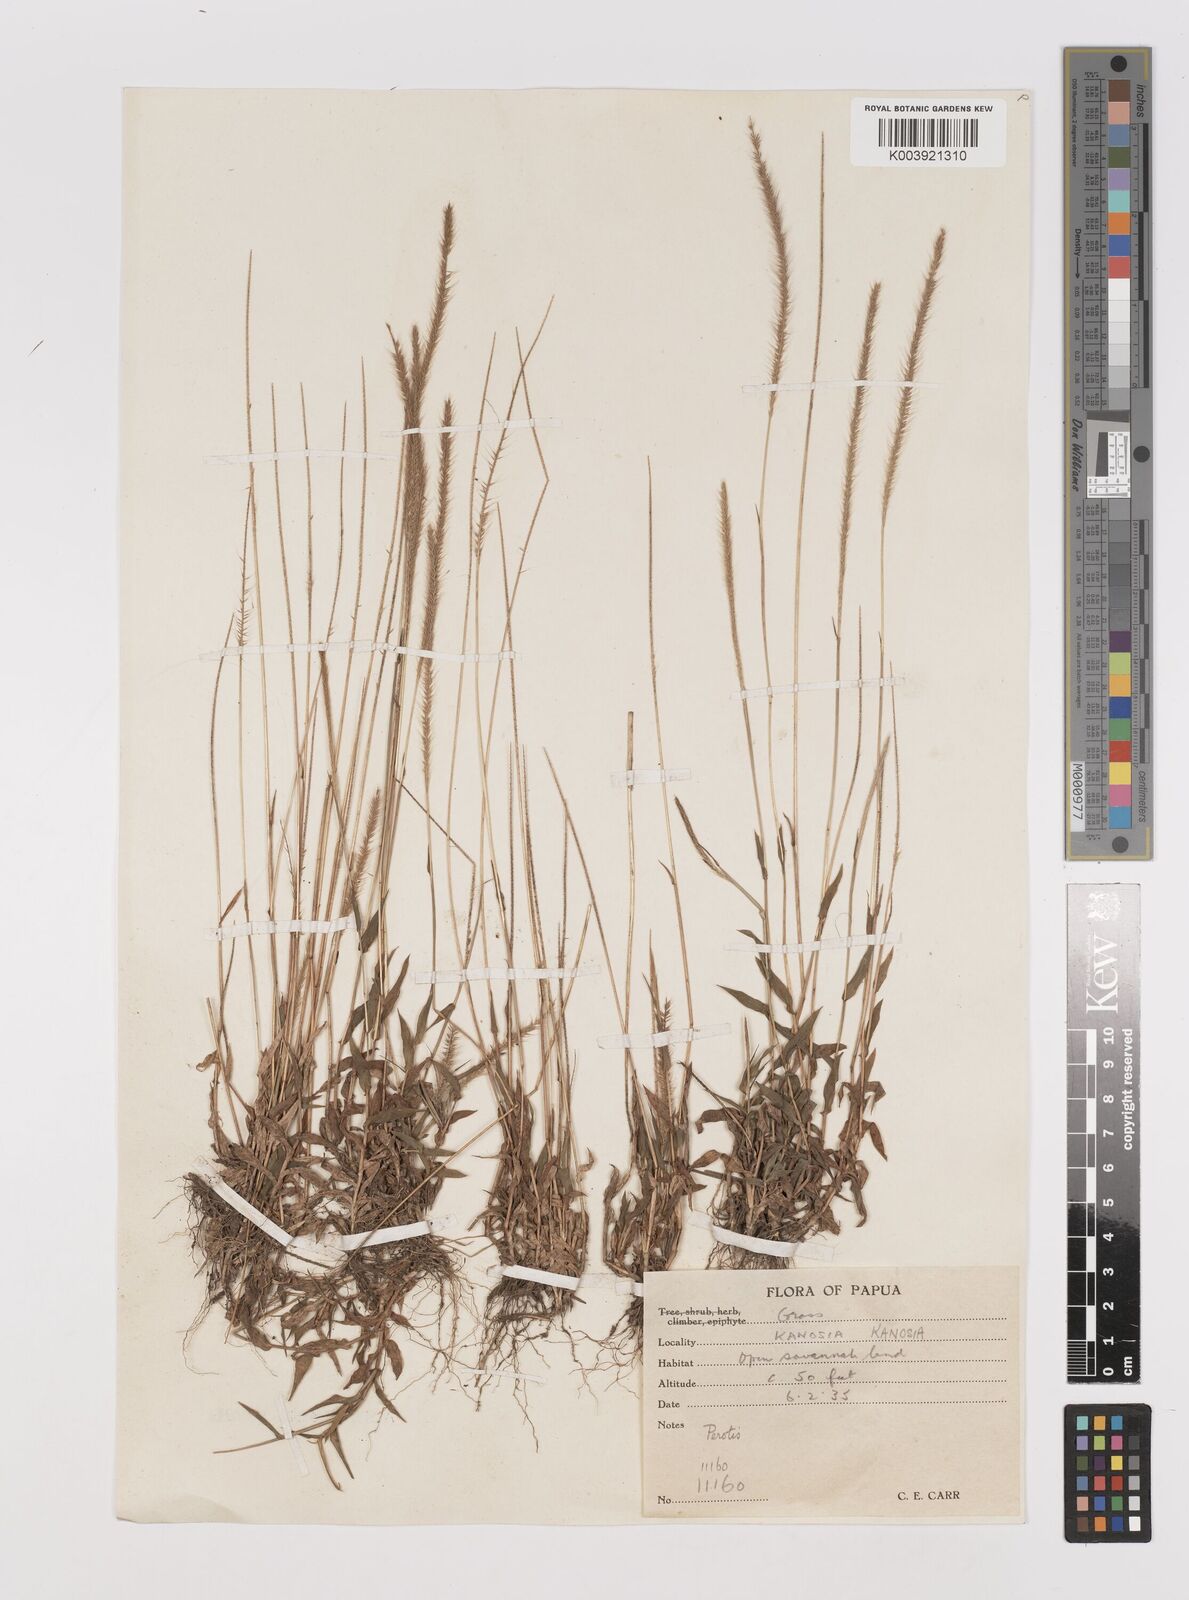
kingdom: Plantae
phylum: Tracheophyta
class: Liliopsida
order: Poales
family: Poaceae
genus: Perotis
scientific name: Perotis indica
